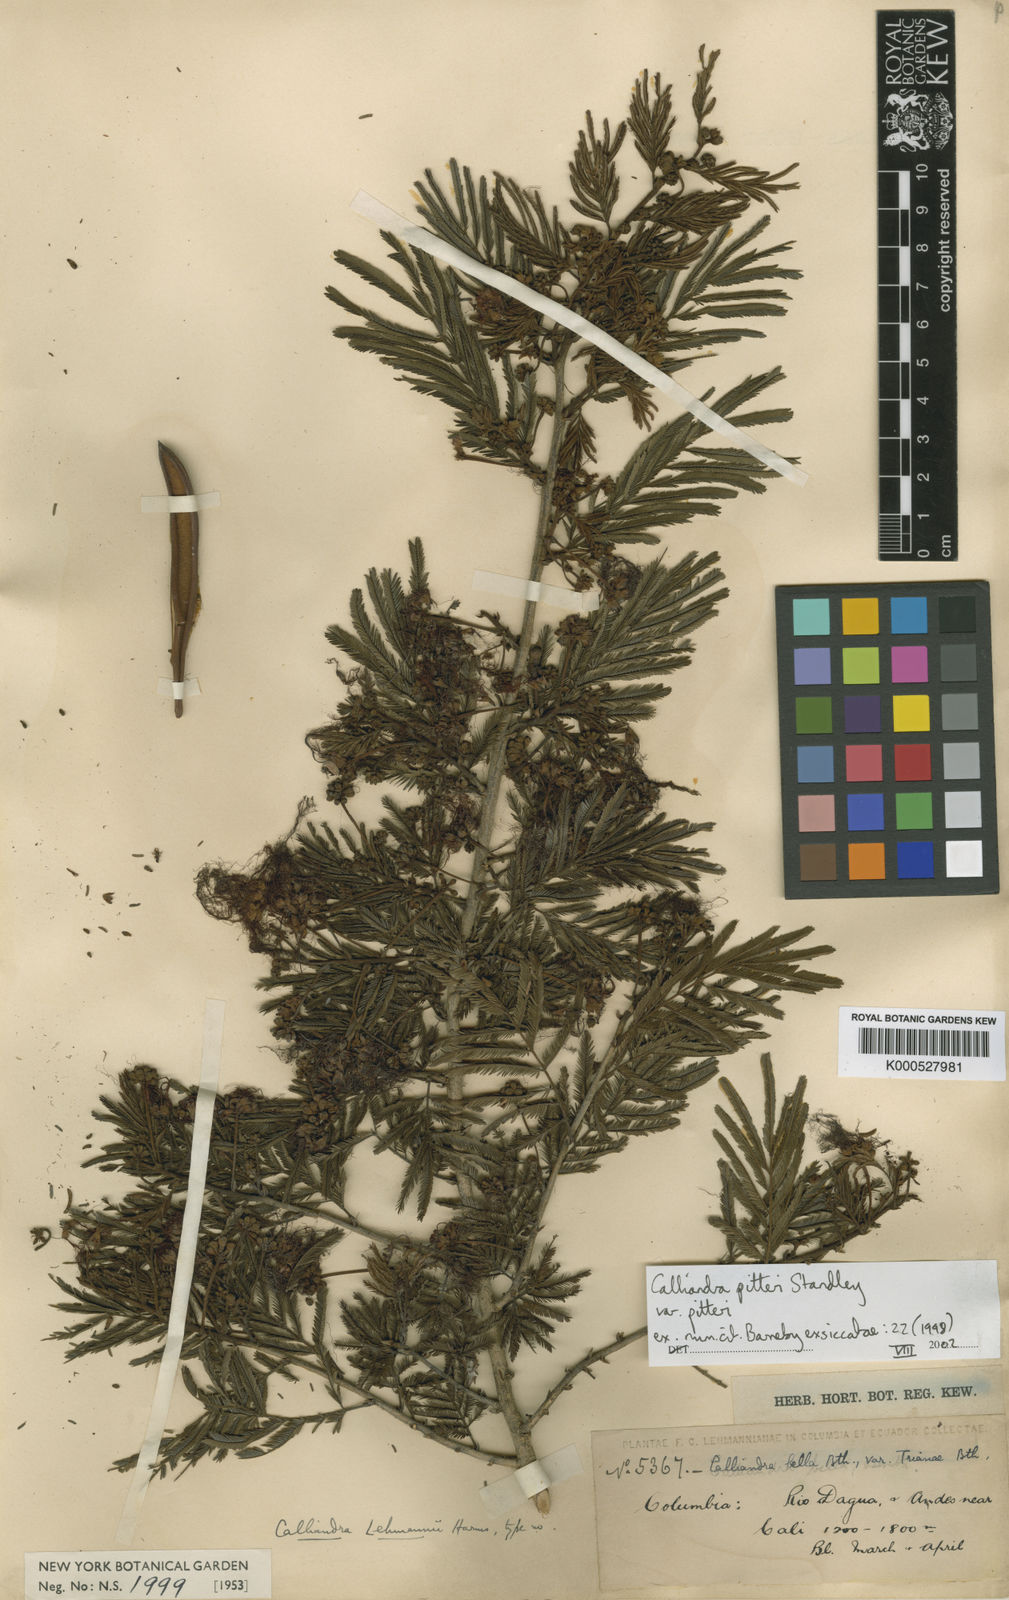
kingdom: Plantae
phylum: Tracheophyta
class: Magnoliopsida
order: Fabales
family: Fabaceae
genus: Calliandra
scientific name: Calliandra pittieri
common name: Carbonero de avenidas
